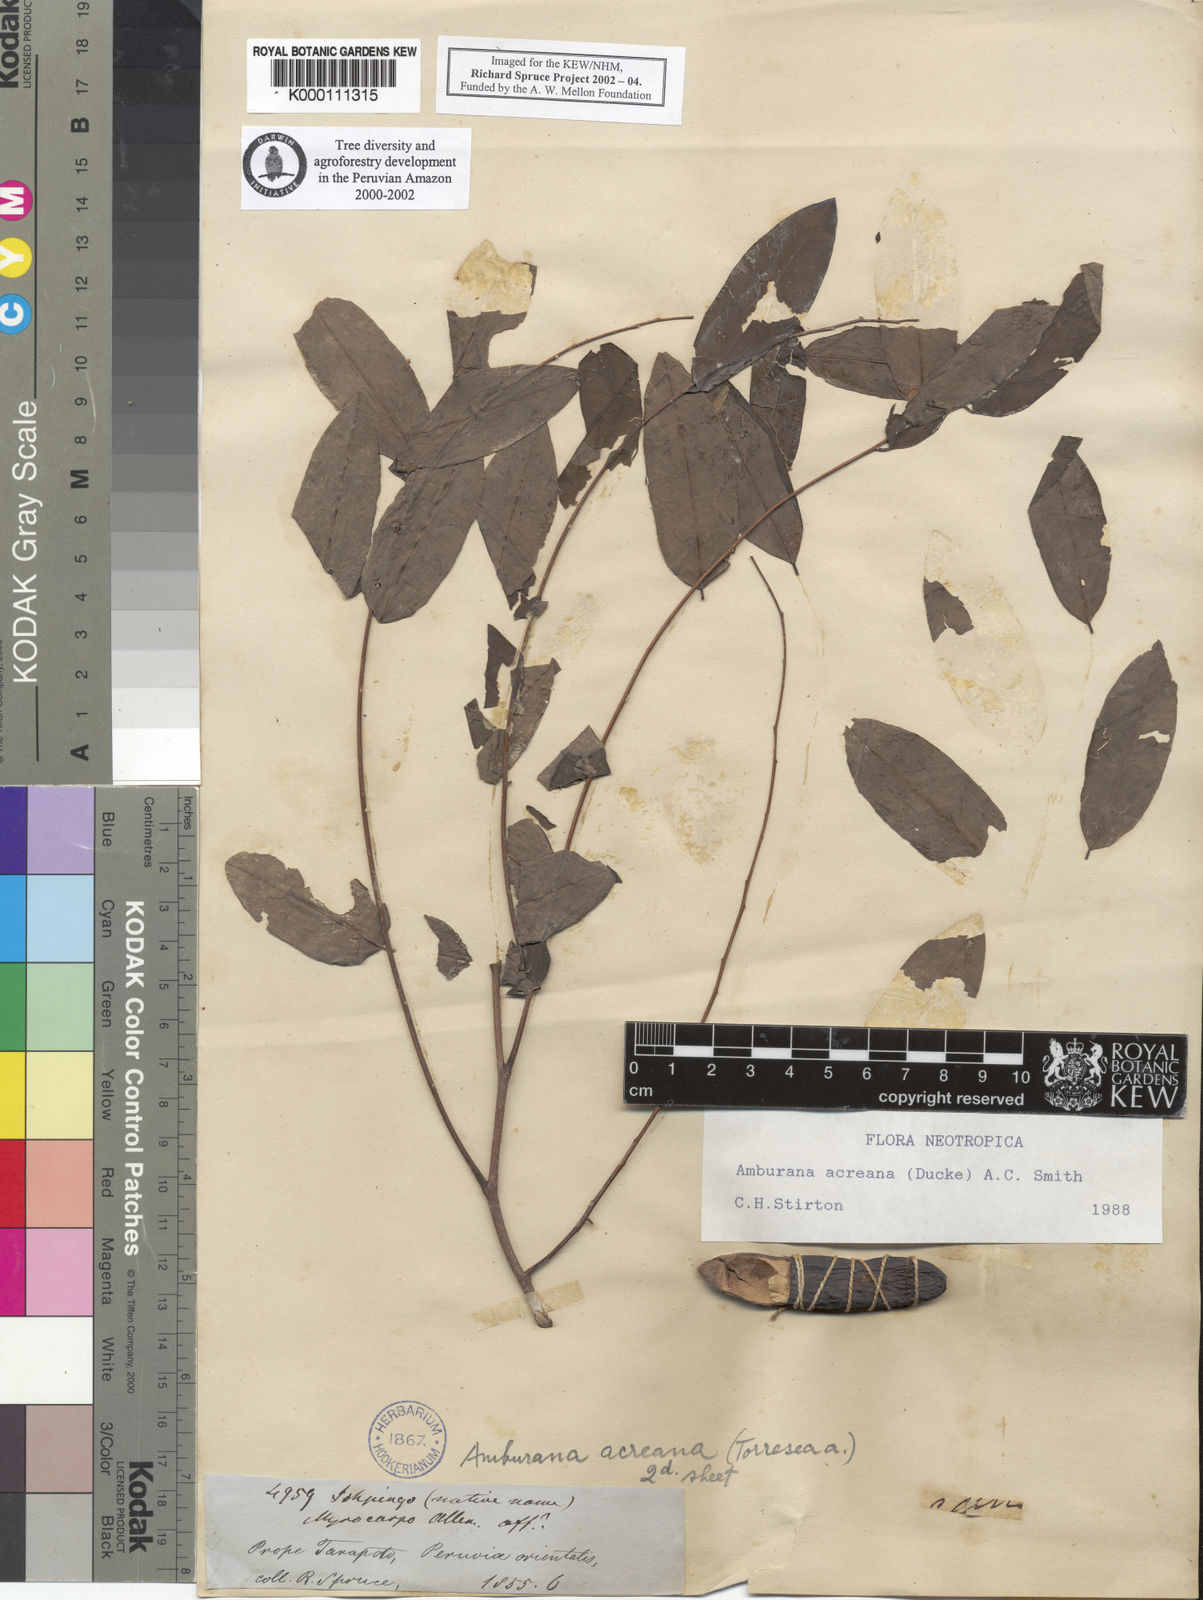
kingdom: Plantae
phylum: Tracheophyta
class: Magnoliopsida
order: Fabales
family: Fabaceae
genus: Amburana
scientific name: Amburana acreana
